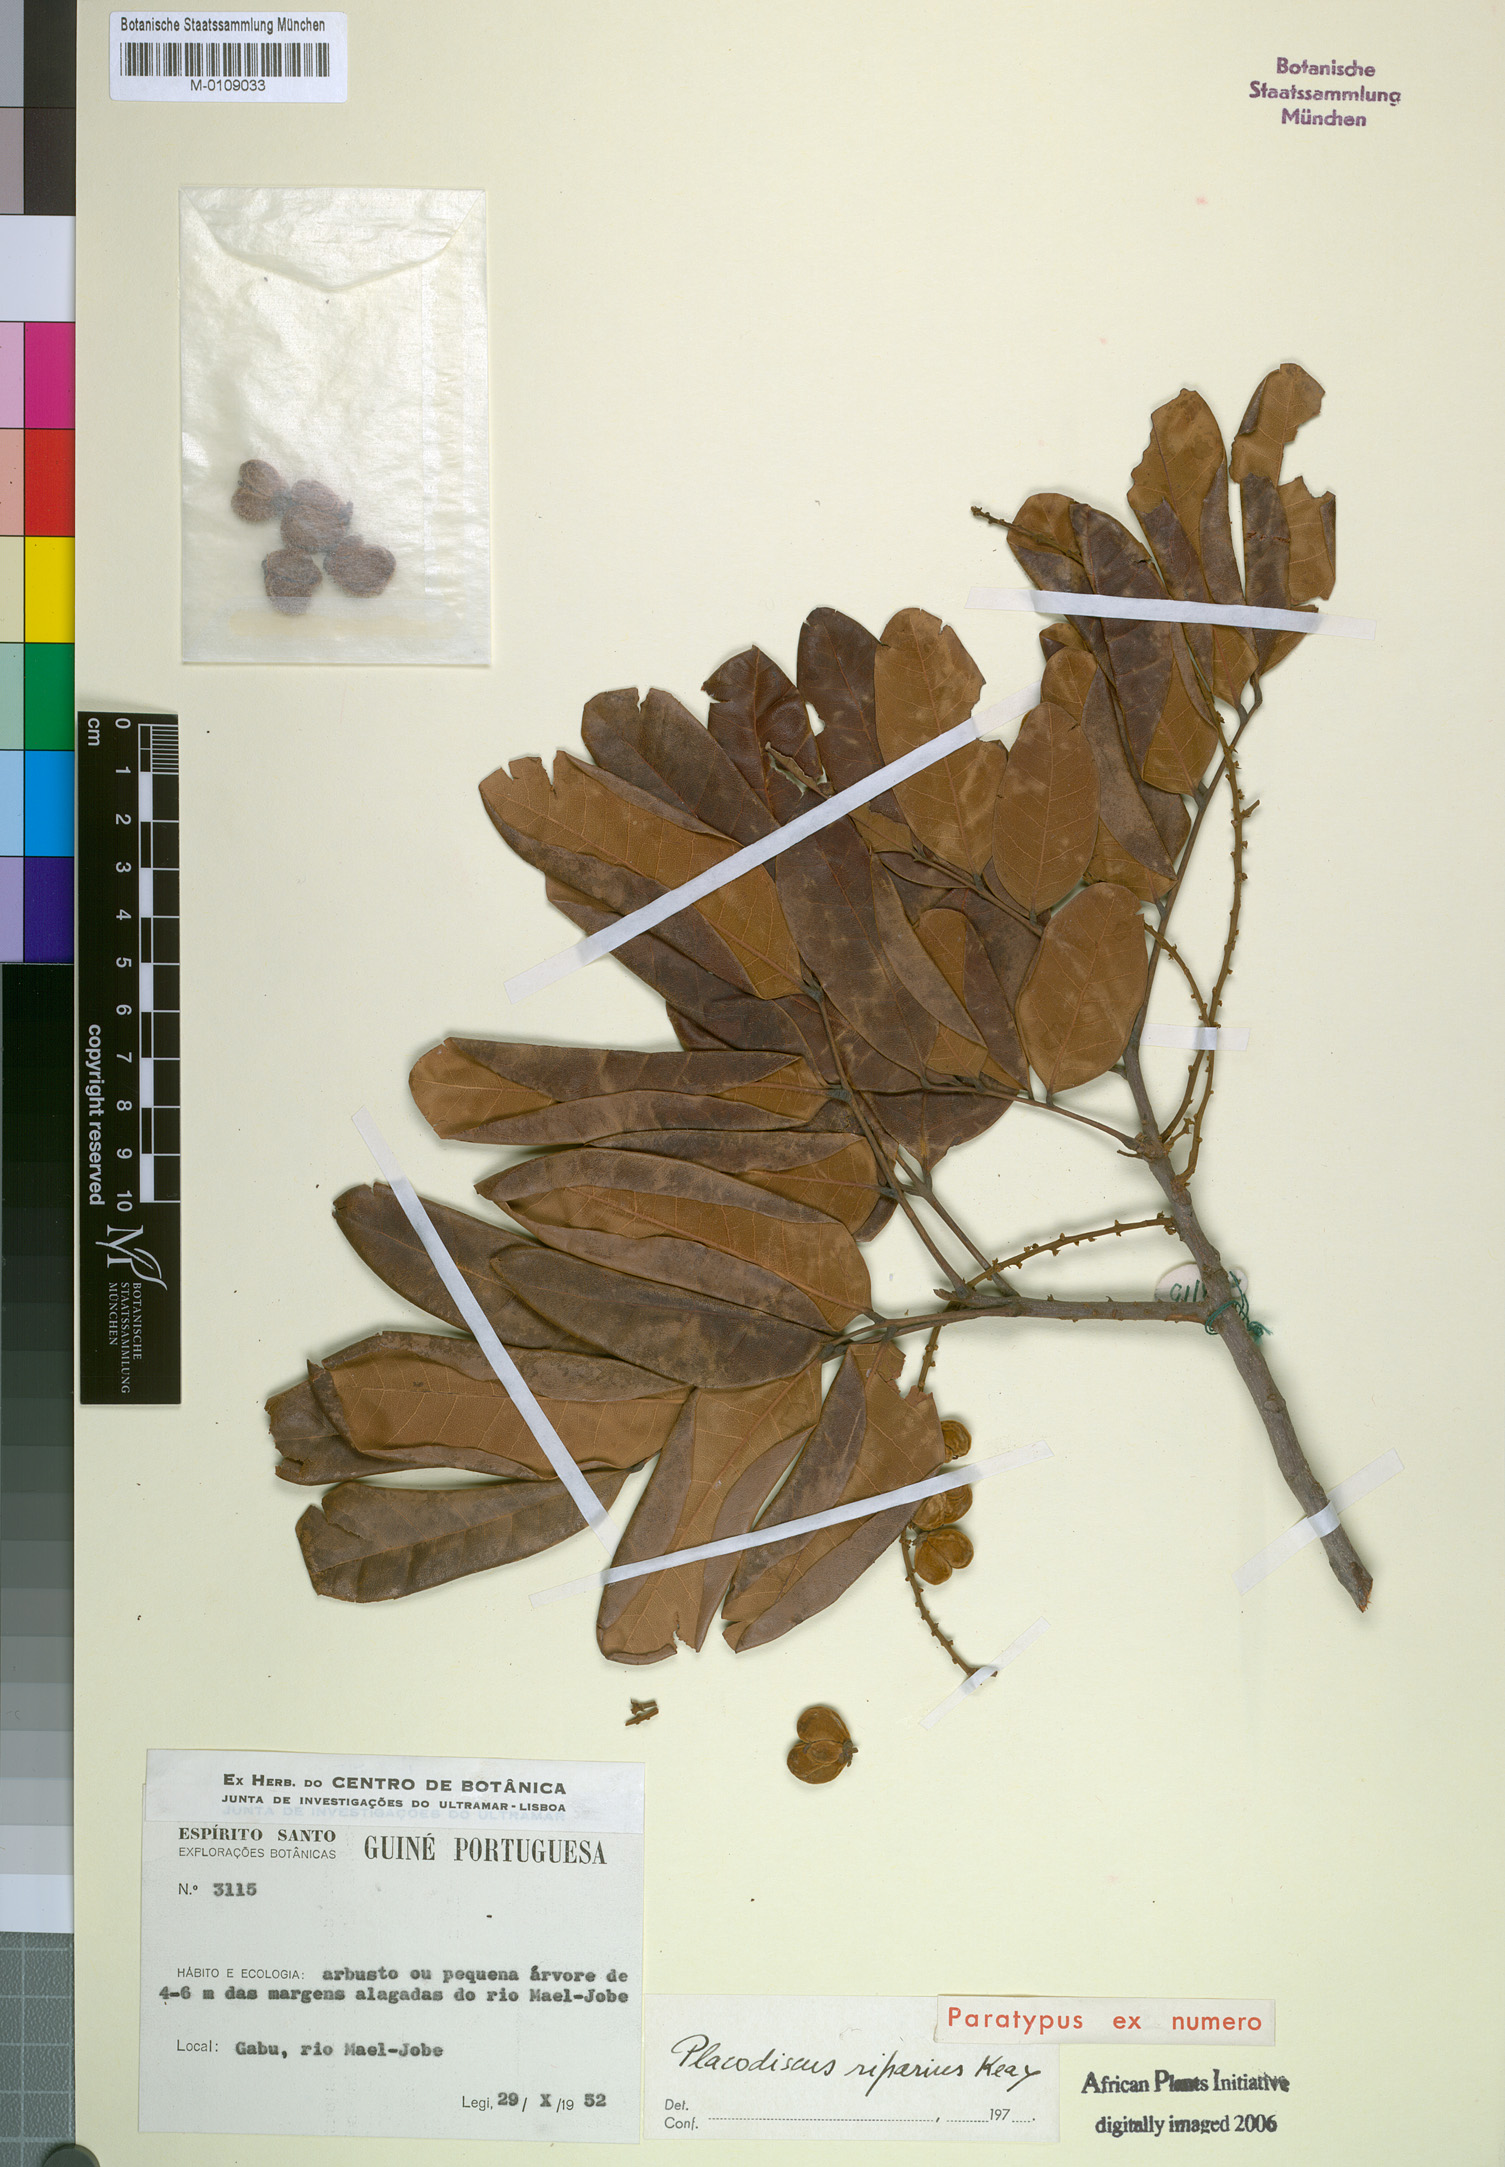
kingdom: Plantae
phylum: Tracheophyta
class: Magnoliopsida
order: Sapindales
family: Sapindaceae
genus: Placodiscus
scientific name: Placodiscus riparius
